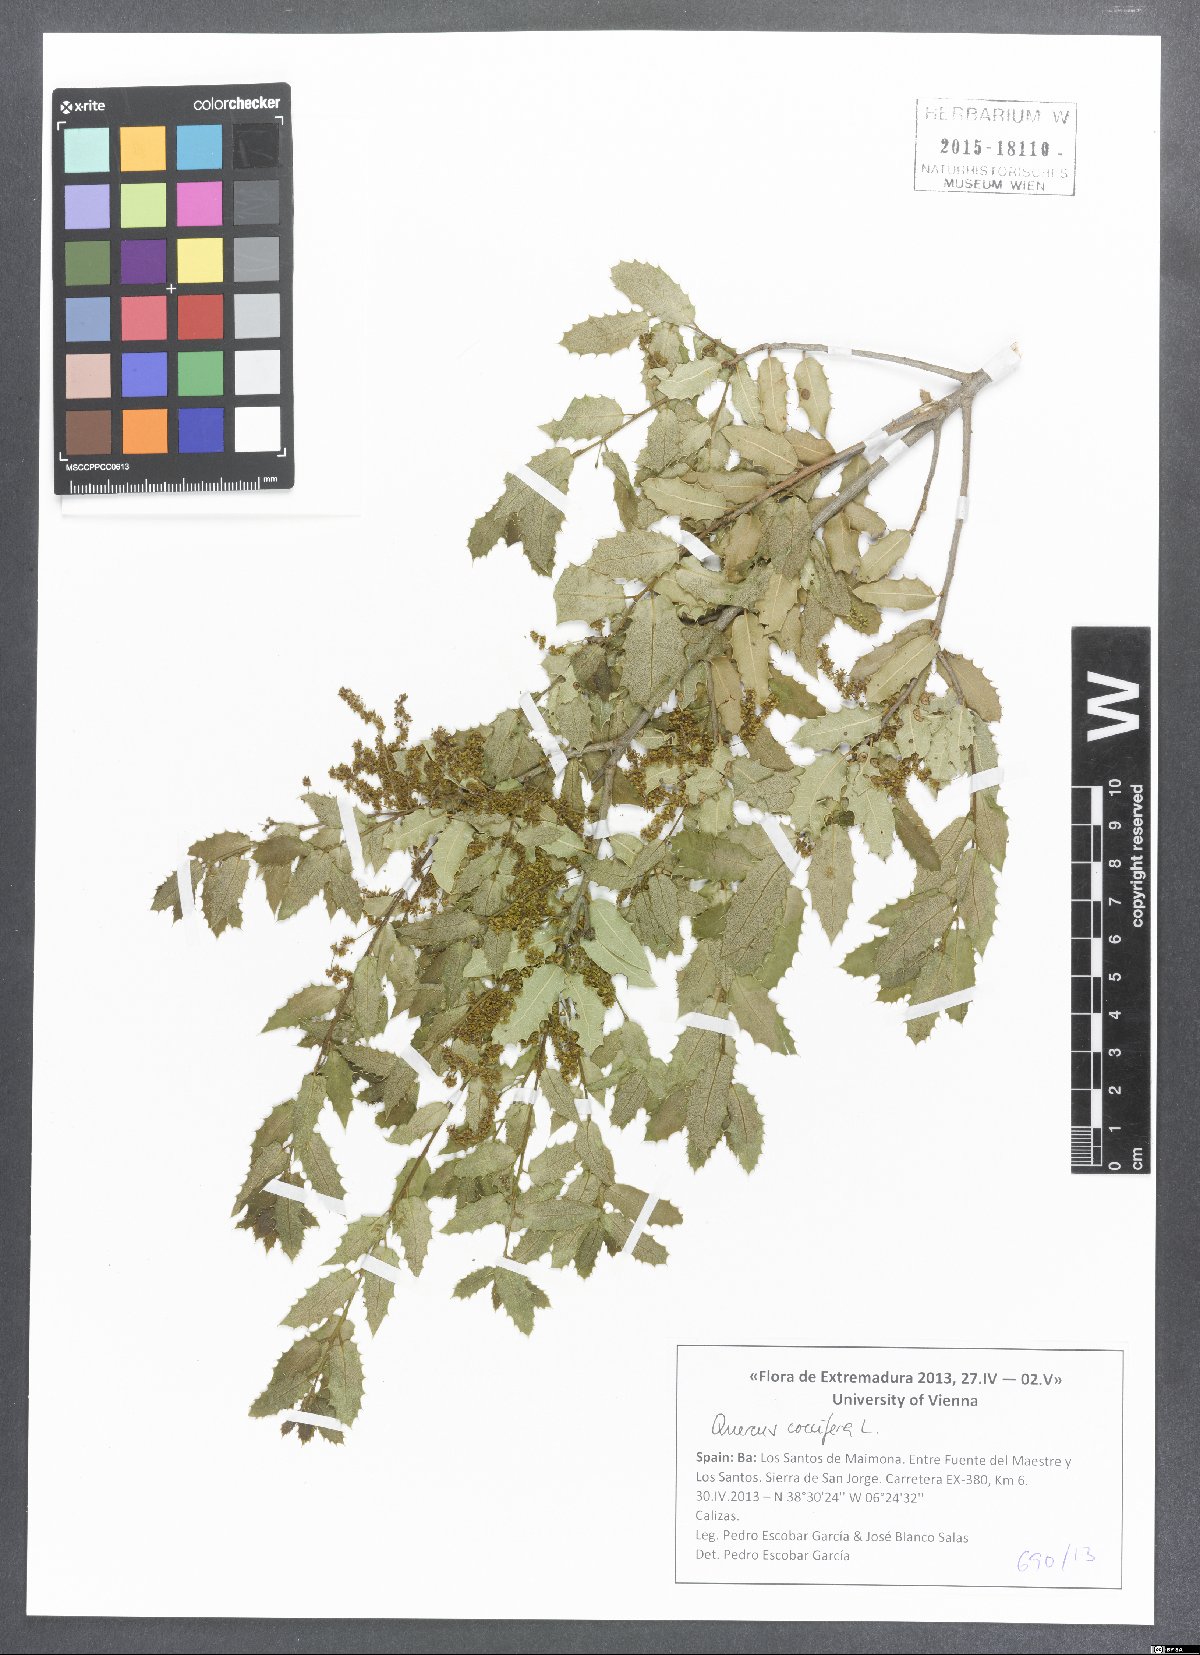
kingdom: Plantae
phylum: Tracheophyta
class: Magnoliopsida
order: Fagales
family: Fagaceae
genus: Quercus
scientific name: Quercus coccifera
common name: Kermes oak
